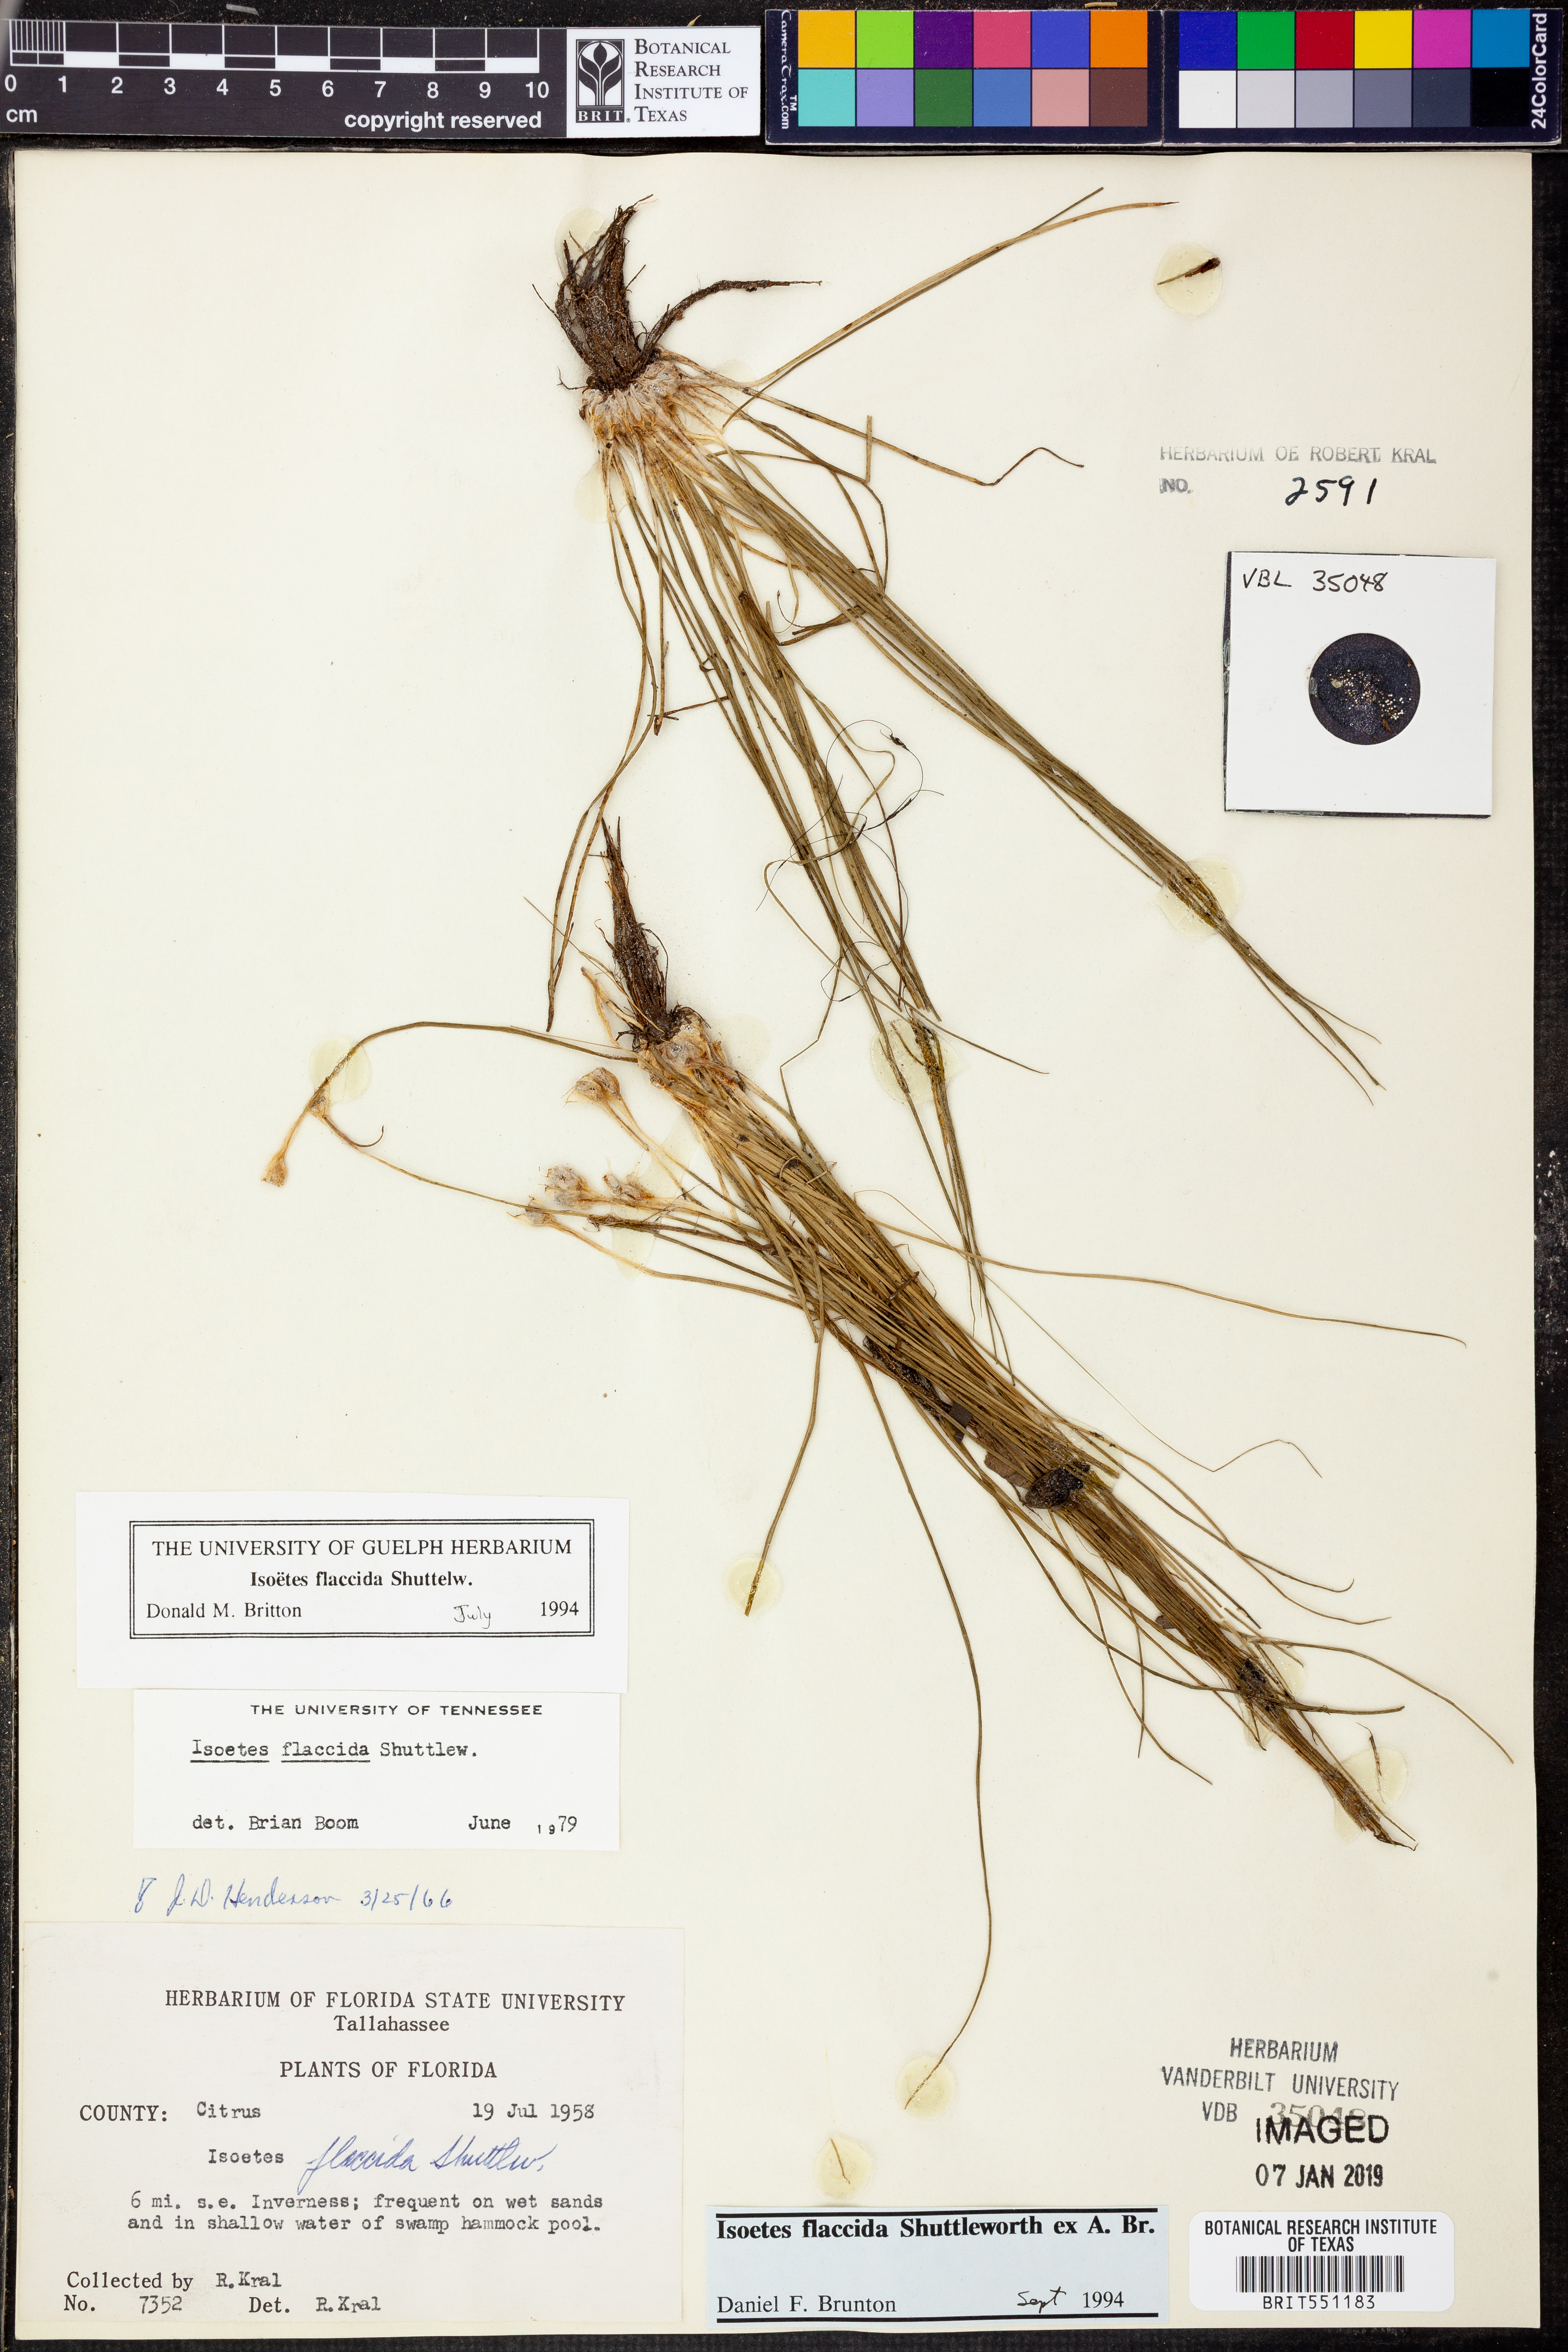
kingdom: Plantae
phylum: Tracheophyta
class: Lycopodiopsida
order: Isoetales
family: Isoetaceae
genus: Isoetes
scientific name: Isoetes flaccida
